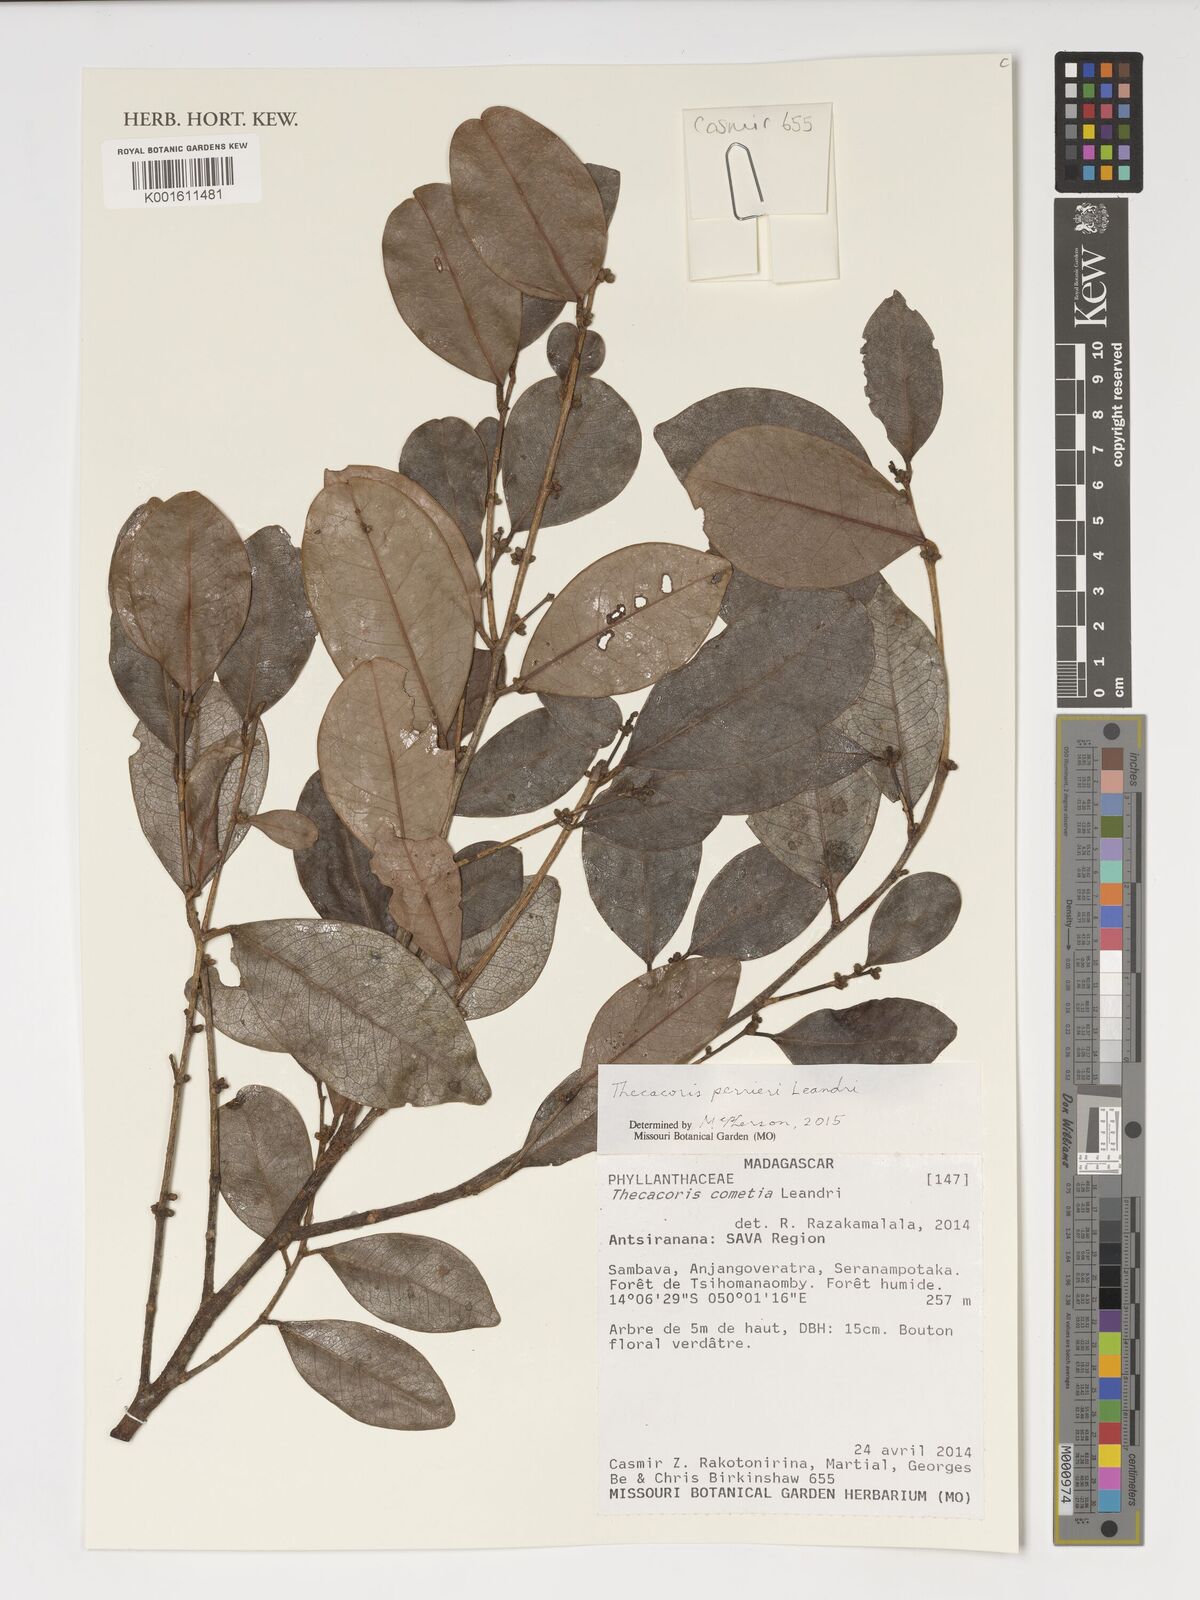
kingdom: Plantae
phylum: Tracheophyta
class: Magnoliopsida
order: Malpighiales
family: Putranjivaceae
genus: Drypetes
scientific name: Drypetes perrieri
